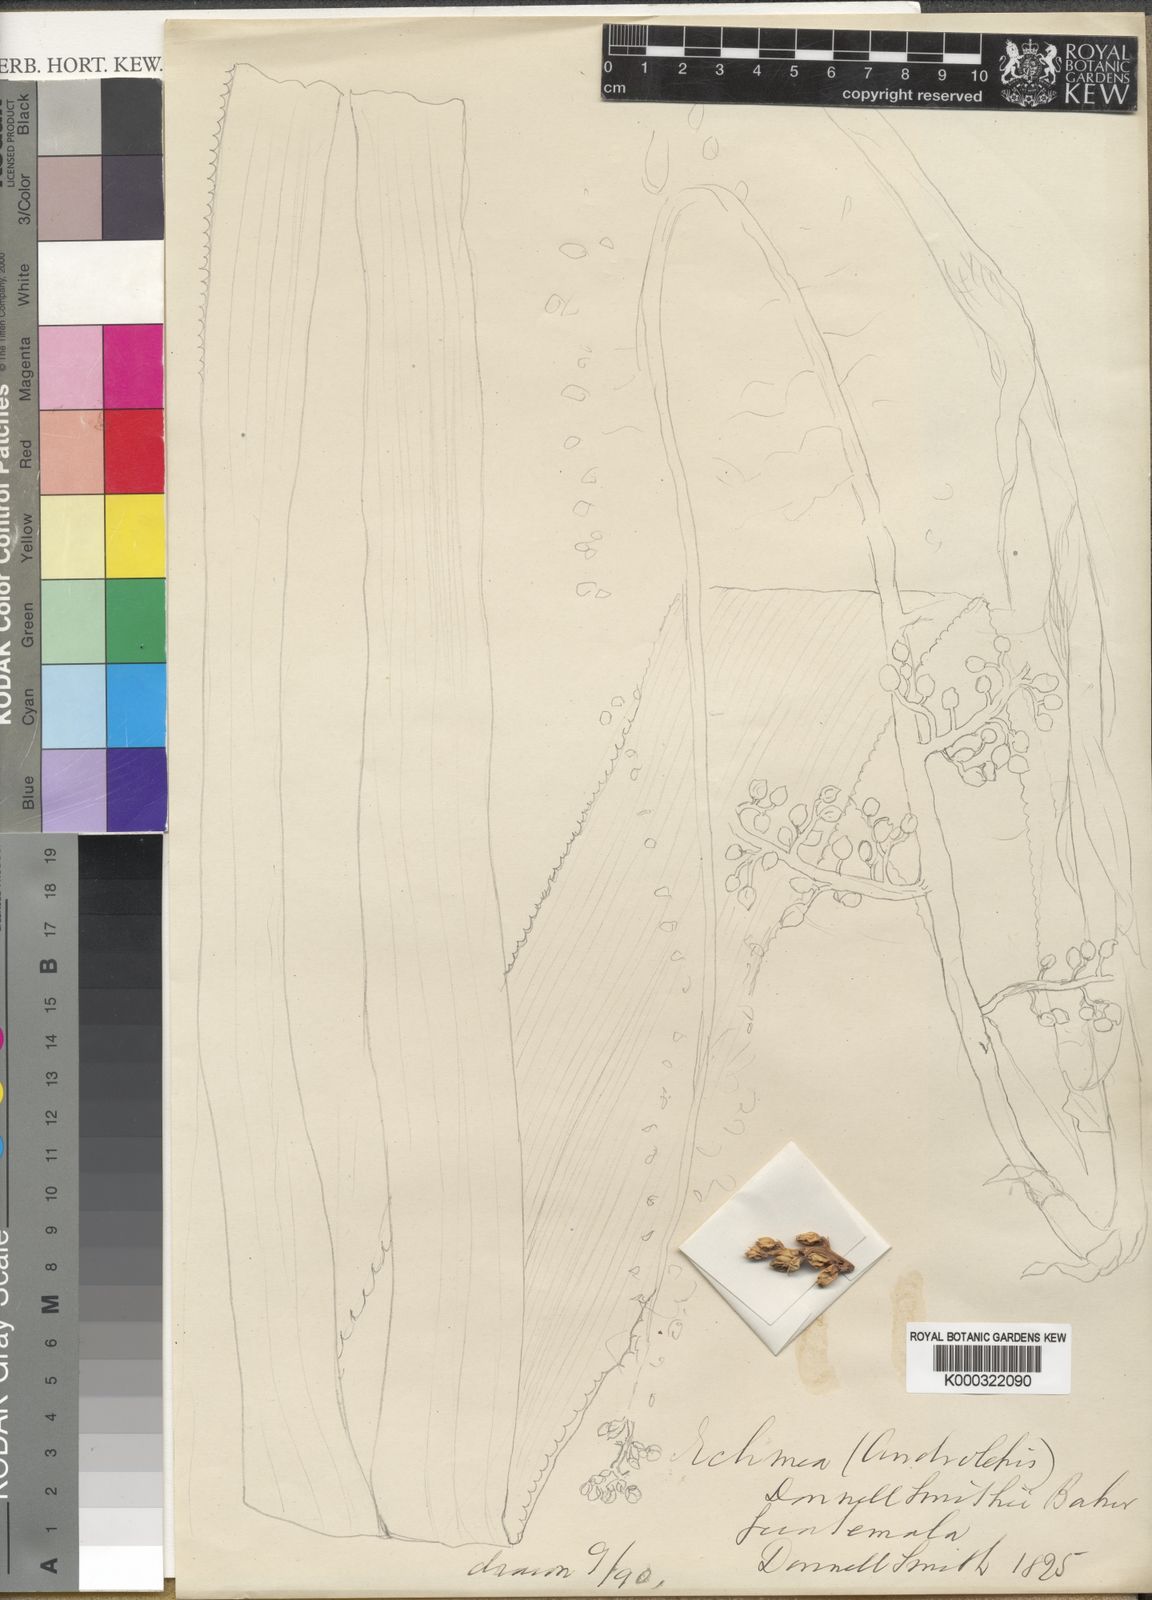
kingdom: Plantae
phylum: Tracheophyta
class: Liliopsida
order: Poales
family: Bromeliaceae
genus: Androlepis
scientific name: Androlepis
